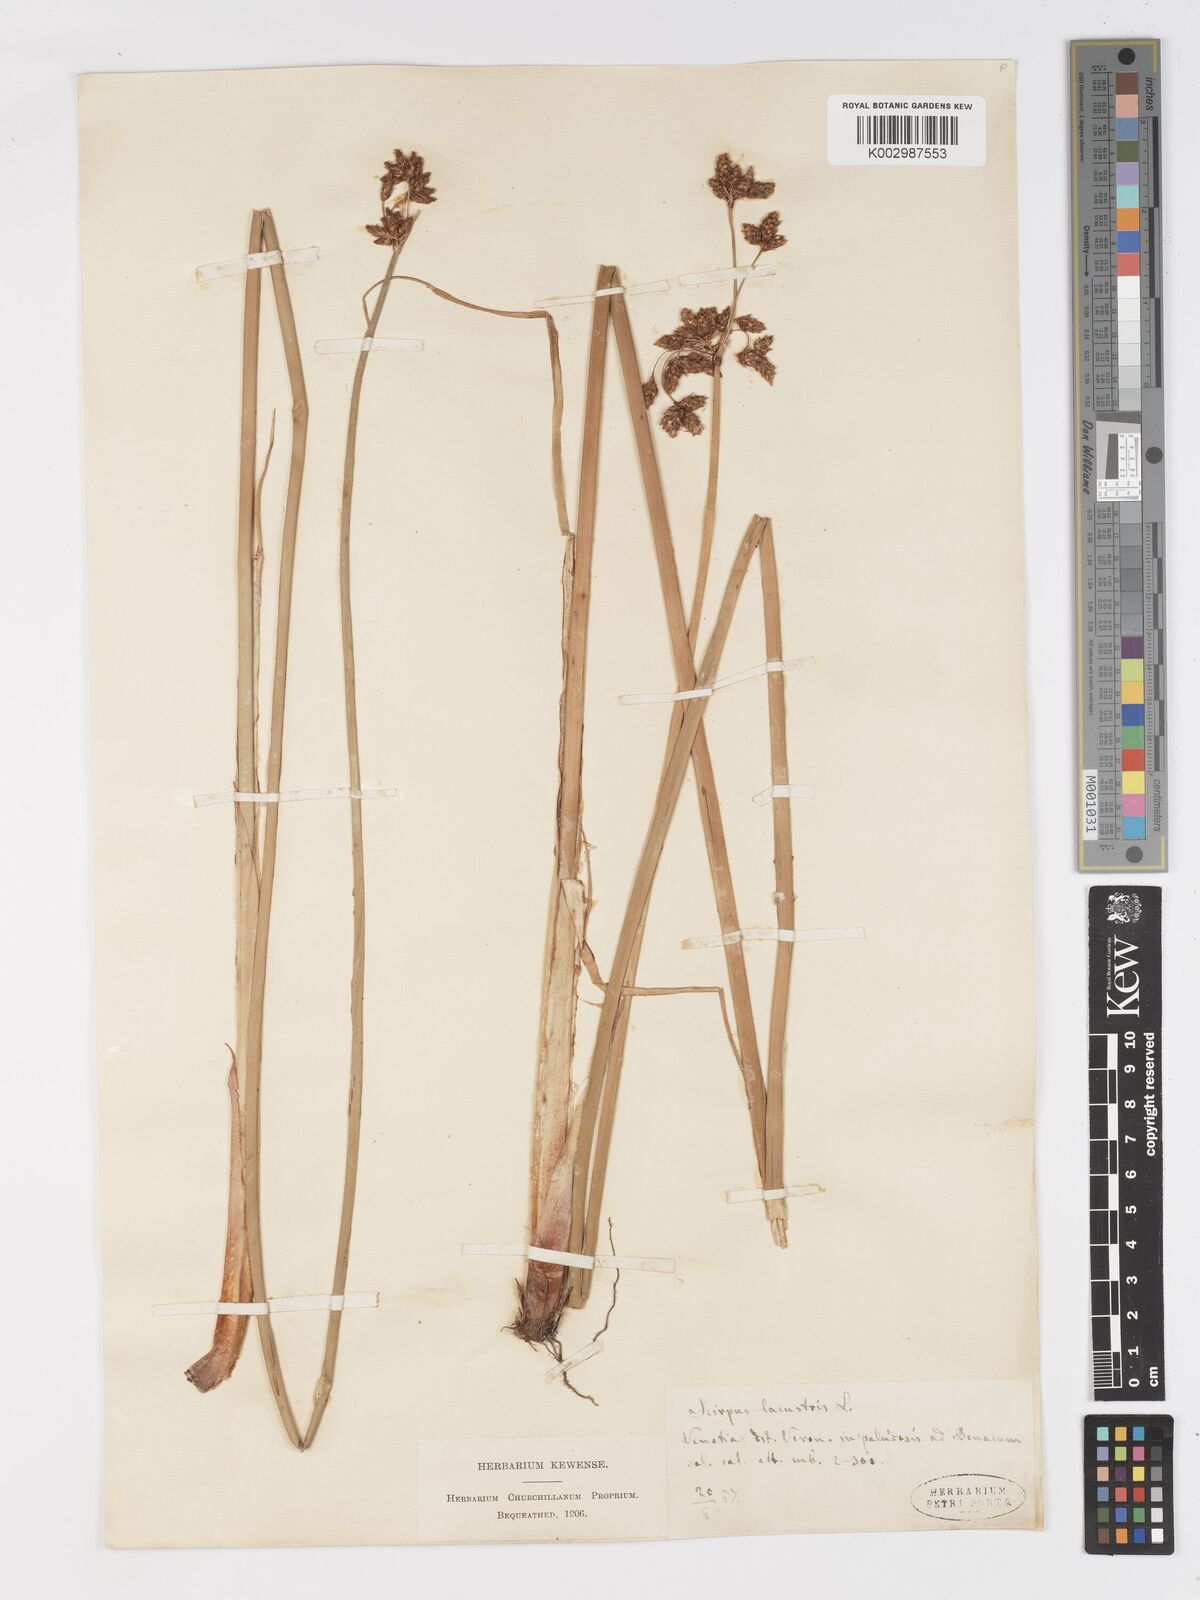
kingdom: Plantae
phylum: Tracheophyta
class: Liliopsida
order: Poales
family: Cyperaceae
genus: Schoenoplectus
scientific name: Schoenoplectus lacustris
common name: Common club-rush
